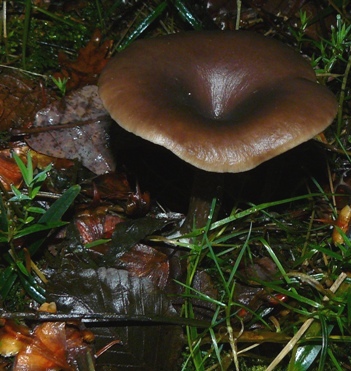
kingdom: Fungi
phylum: Basidiomycota
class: Agaricomycetes
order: Agaricales
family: Pseudoclitocybaceae
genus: Pseudoclitocybe
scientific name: Pseudoclitocybe cyathiformis
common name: almindelig bægertragthat
